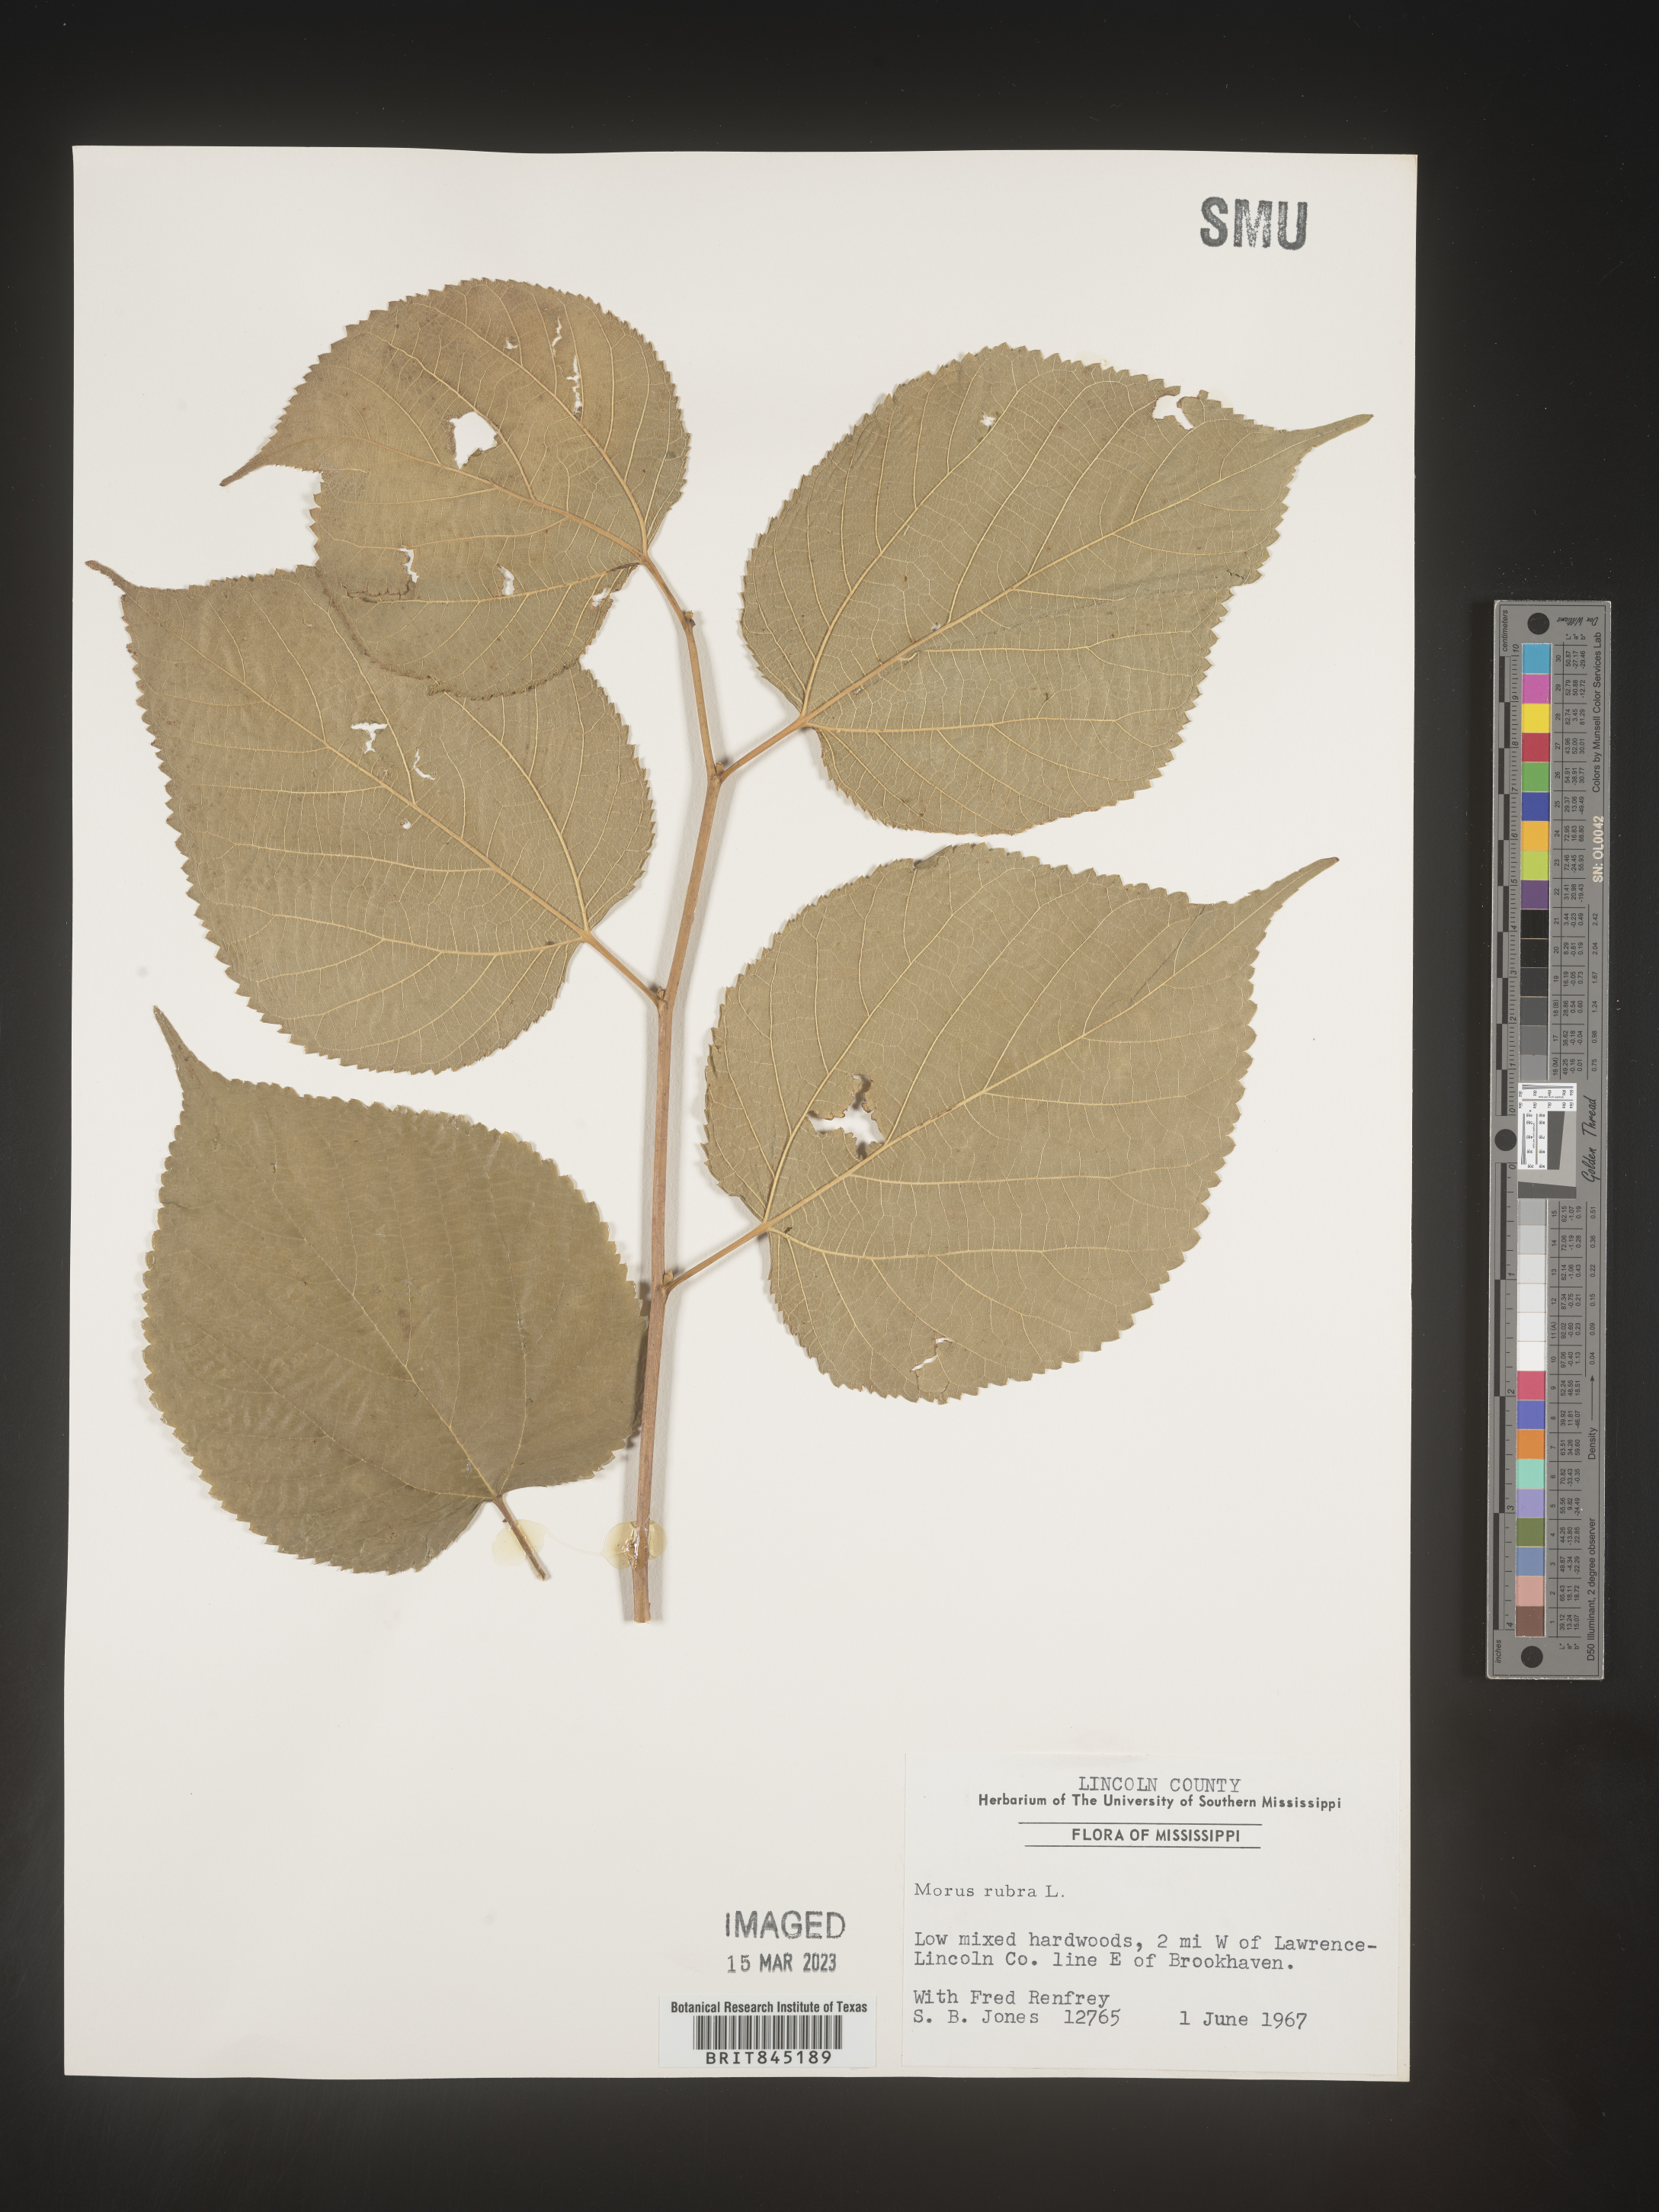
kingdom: Plantae
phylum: Tracheophyta
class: Magnoliopsida
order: Rosales
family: Moraceae
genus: Morus
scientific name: Morus rubra
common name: Red mulberry
